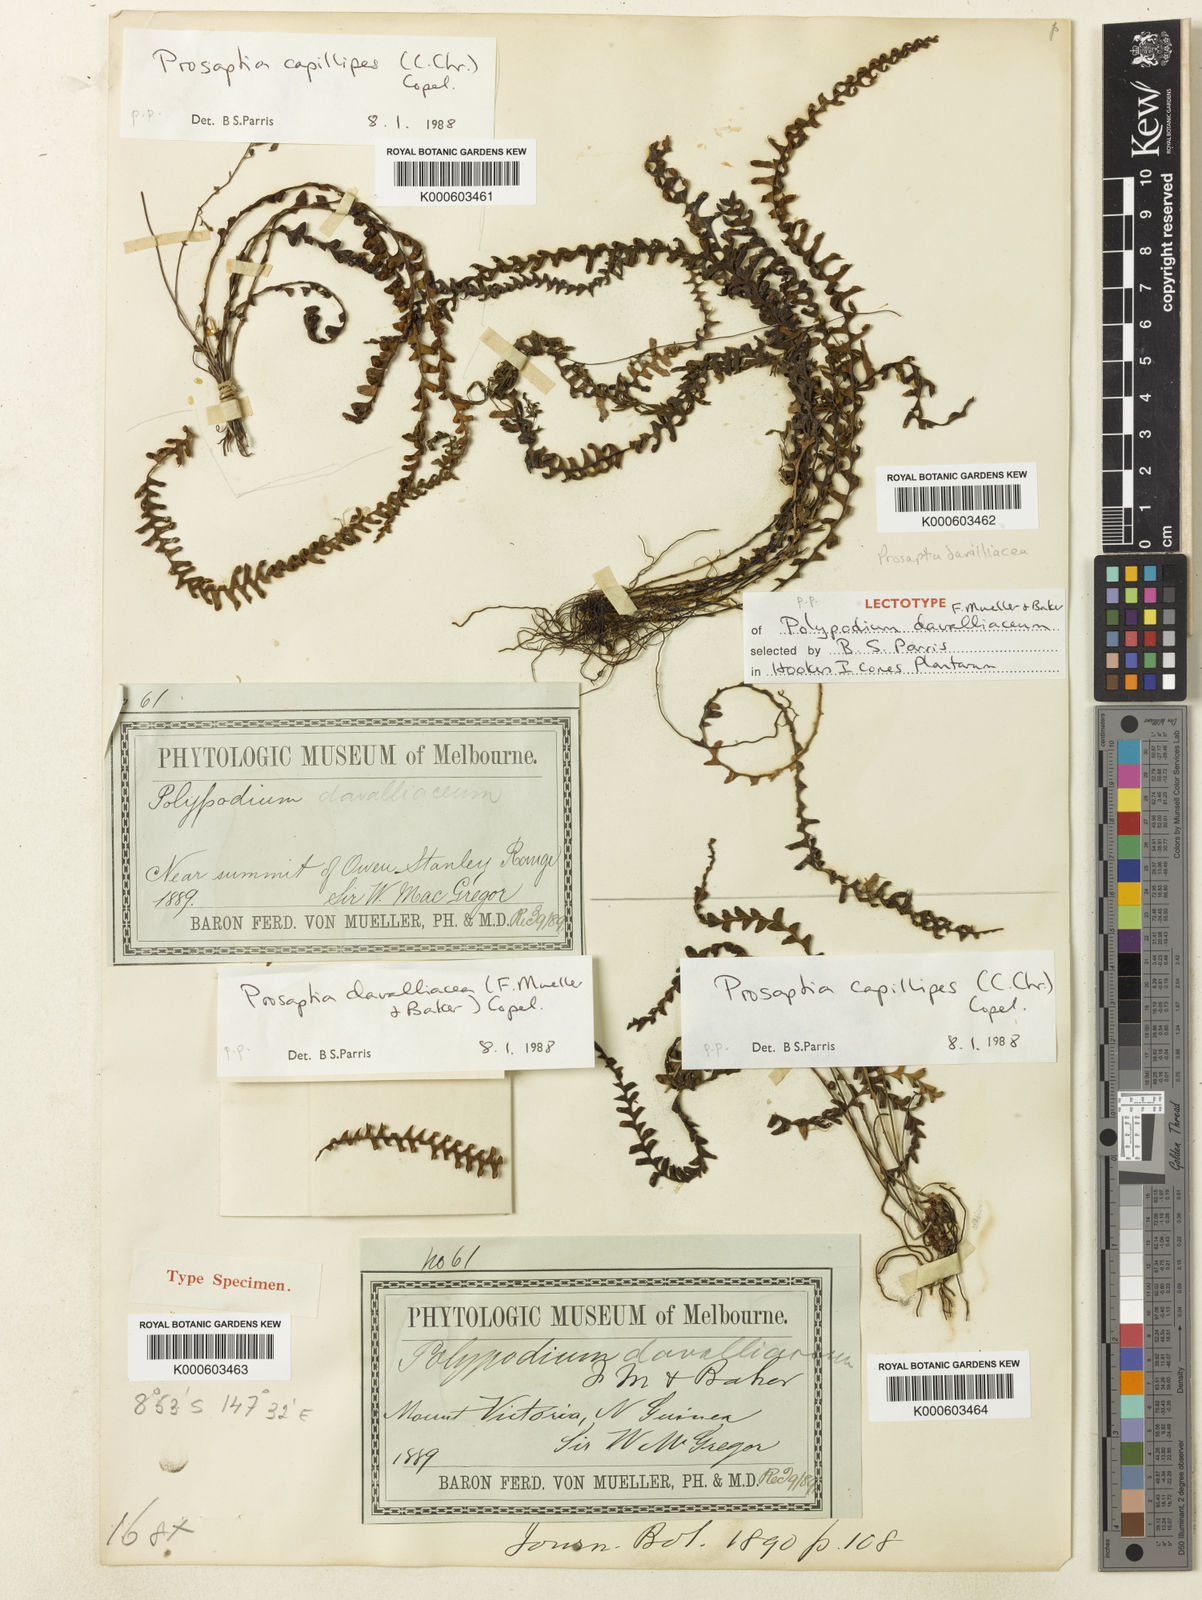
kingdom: Plantae
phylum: Tracheophyta
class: Polypodiopsida
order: Polypodiales
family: Polypodiaceae
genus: Prosaptia
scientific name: Prosaptia davalliacea
